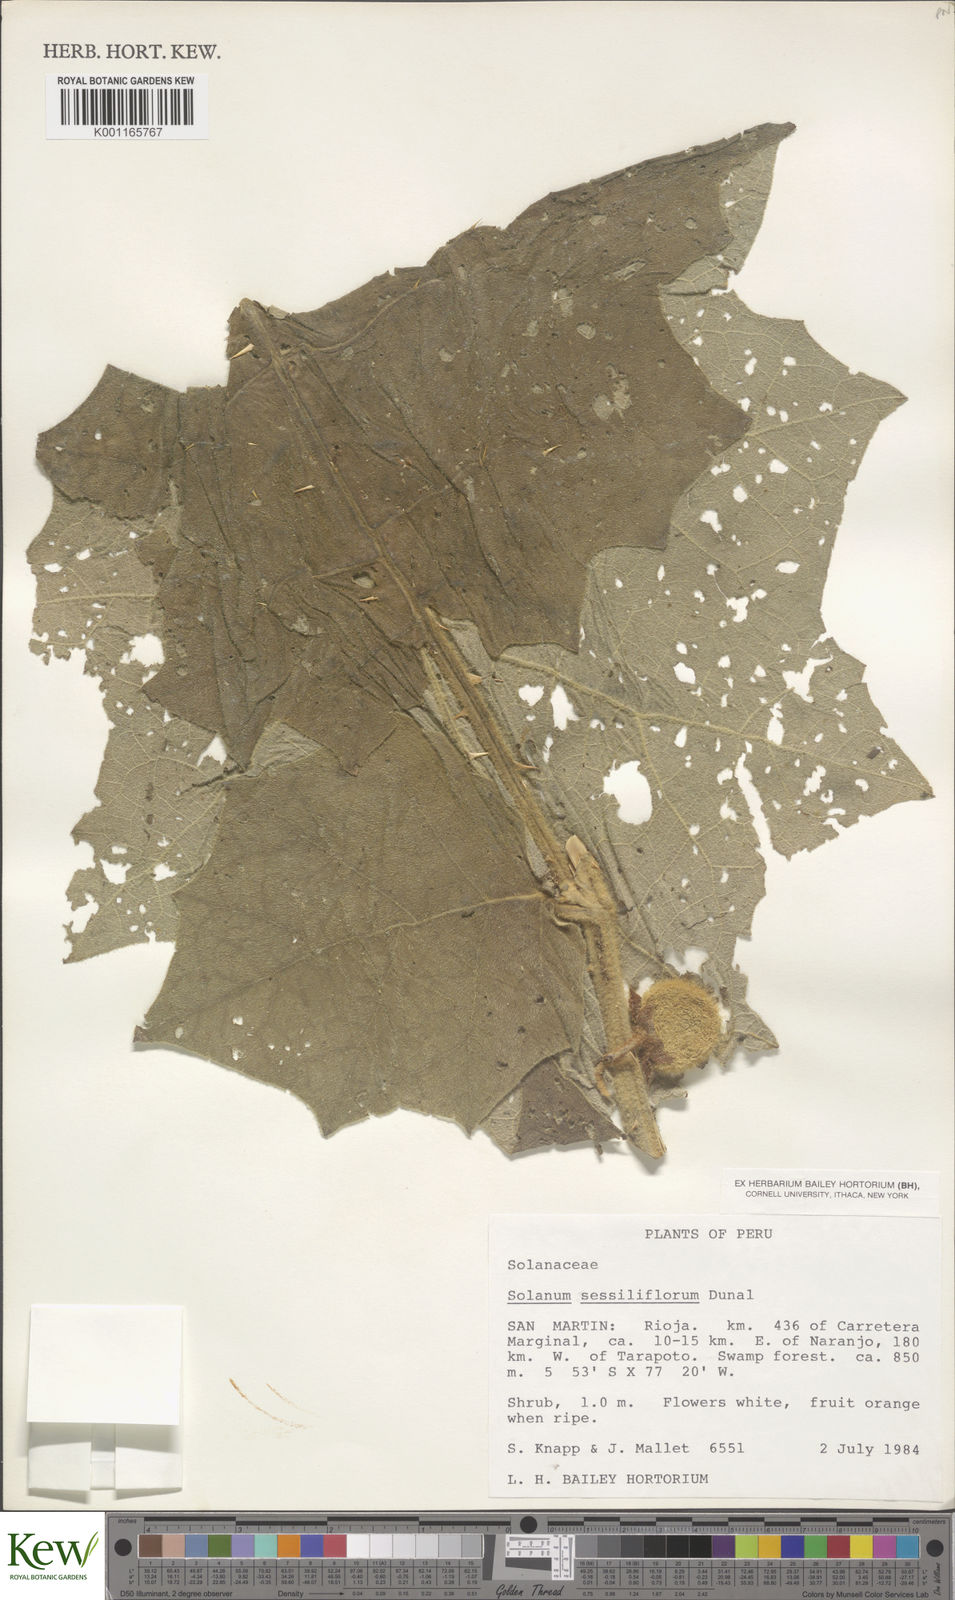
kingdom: Plantae
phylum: Tracheophyta
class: Magnoliopsida
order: Solanales
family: Solanaceae
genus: Solanum
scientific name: Solanum sessiliflorum
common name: Orinoco-apple
